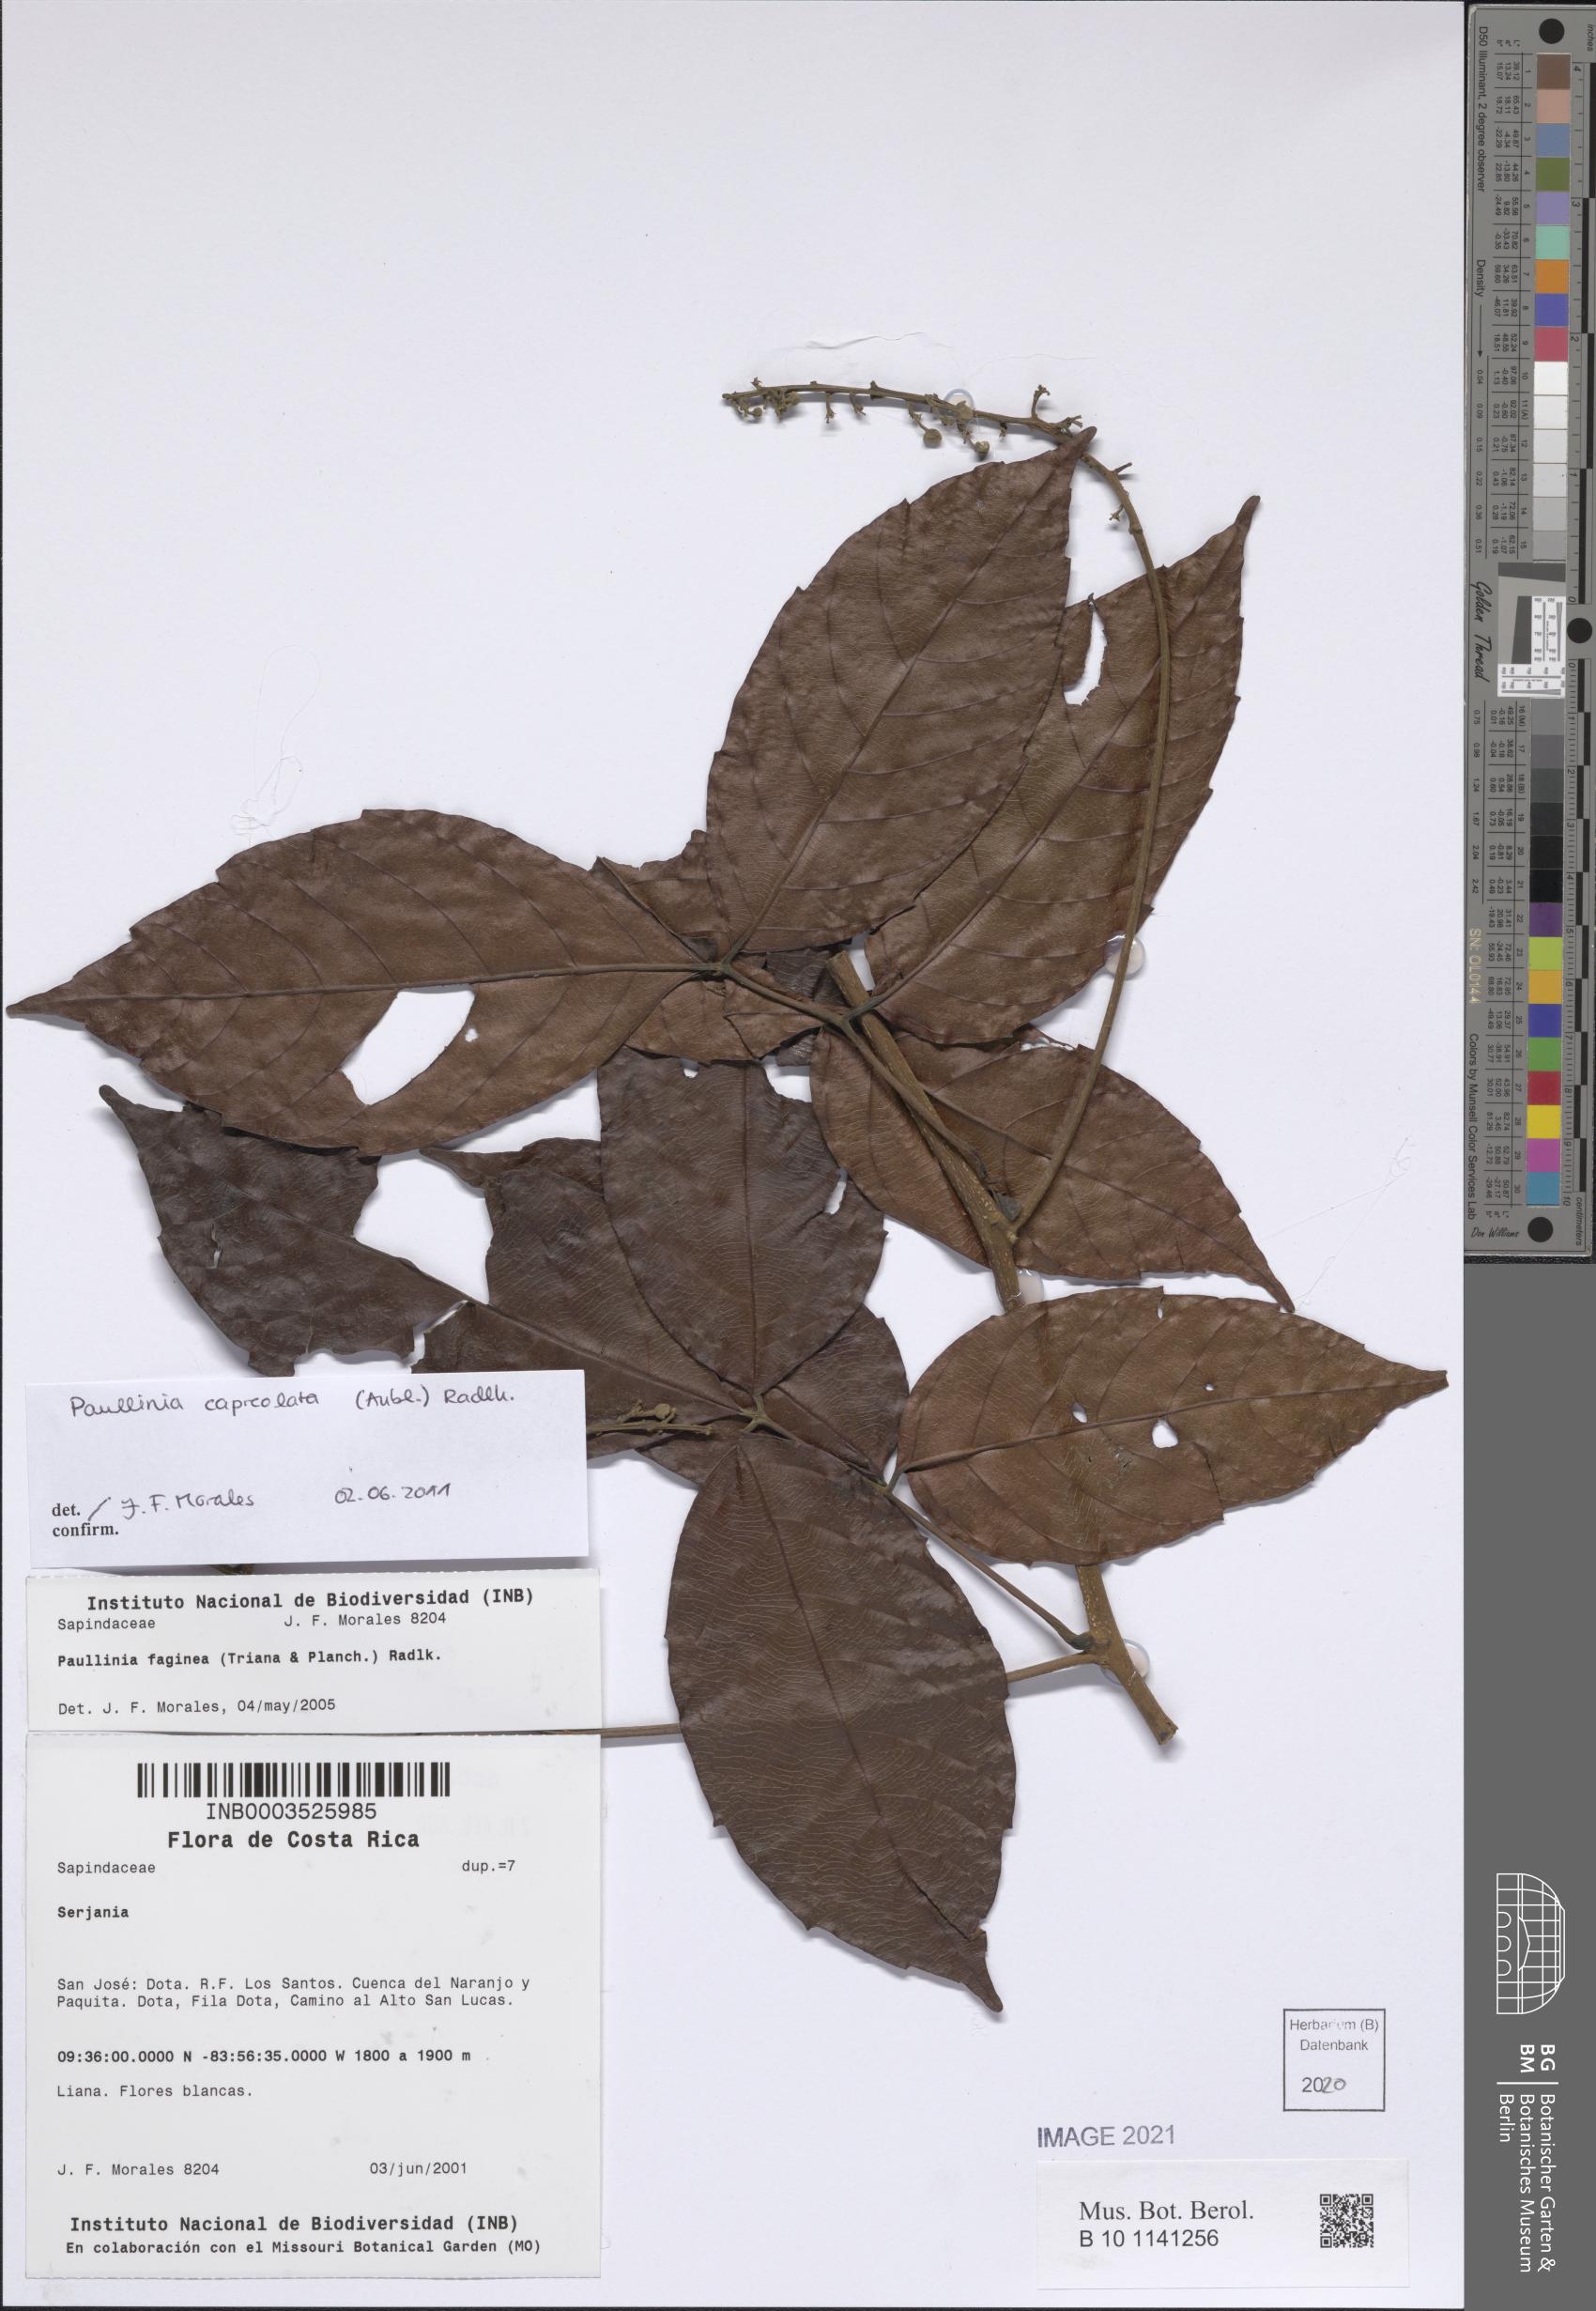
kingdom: Plantae
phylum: Tracheophyta
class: Magnoliopsida
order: Sapindales
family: Sapindaceae
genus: Paullinia
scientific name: Paullinia capreolata
